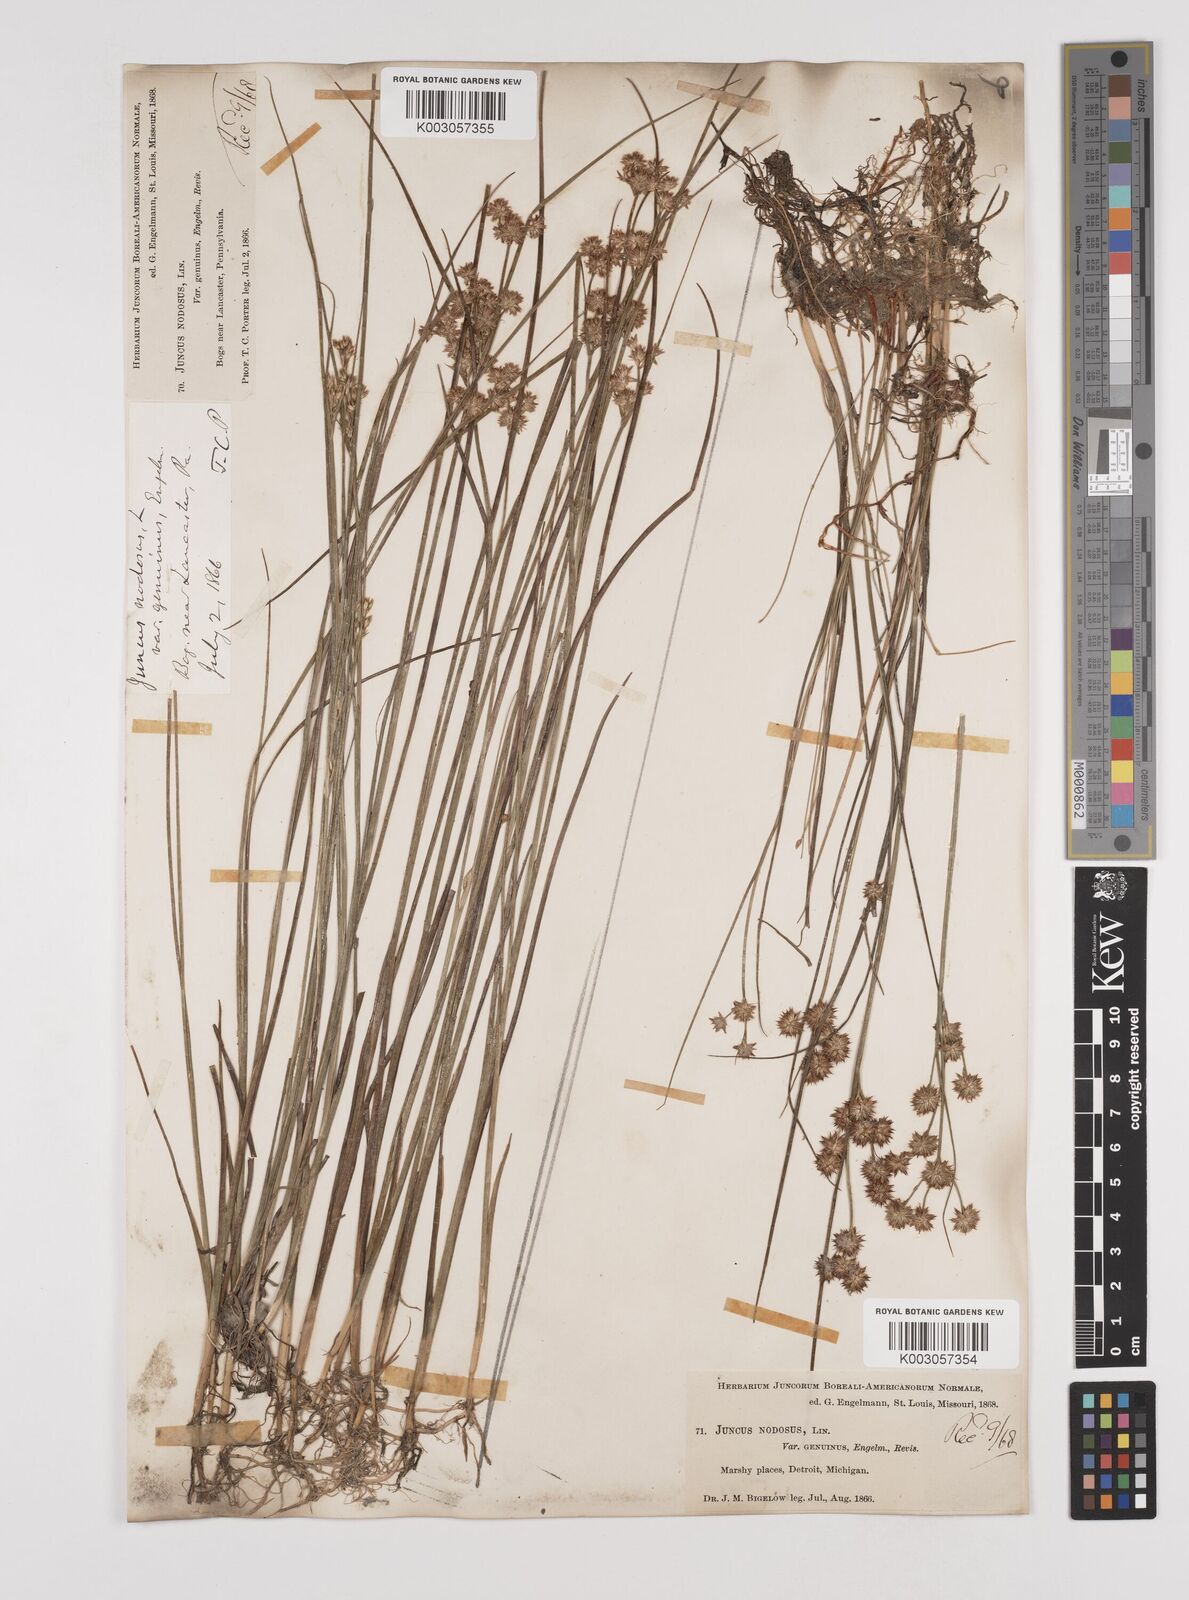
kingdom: Plantae
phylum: Tracheophyta
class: Liliopsida
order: Poales
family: Juncaceae
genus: Juncus
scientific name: Juncus nodosus
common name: Knotted rush
